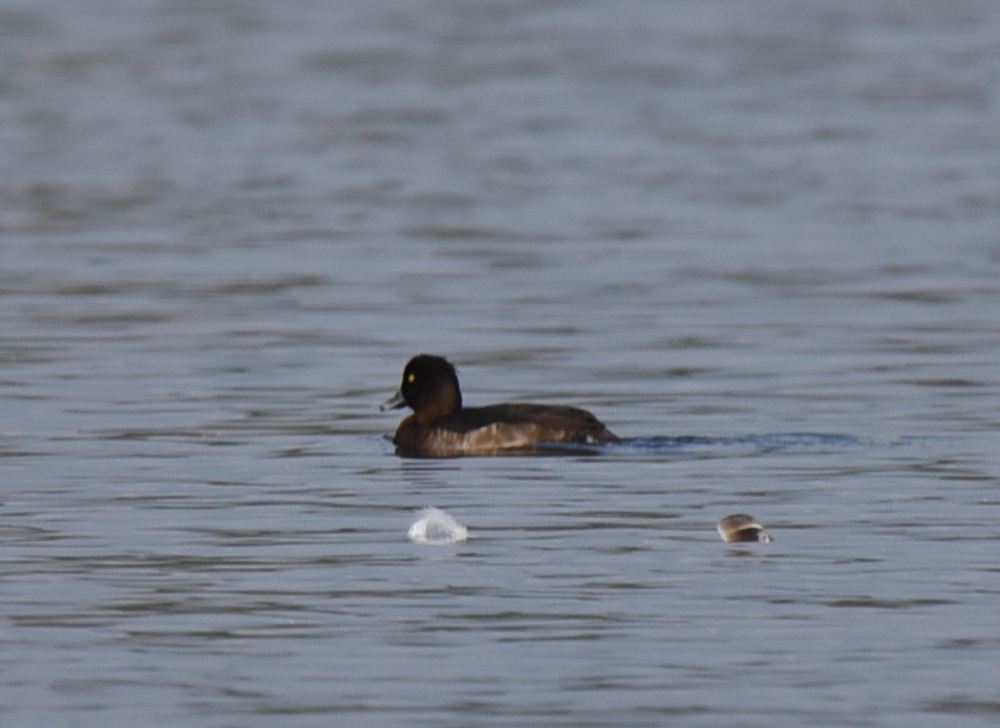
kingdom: Animalia
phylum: Chordata
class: Aves
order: Anseriformes
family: Anatidae
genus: Aythya
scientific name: Aythya fuligula
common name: Tufted duck
